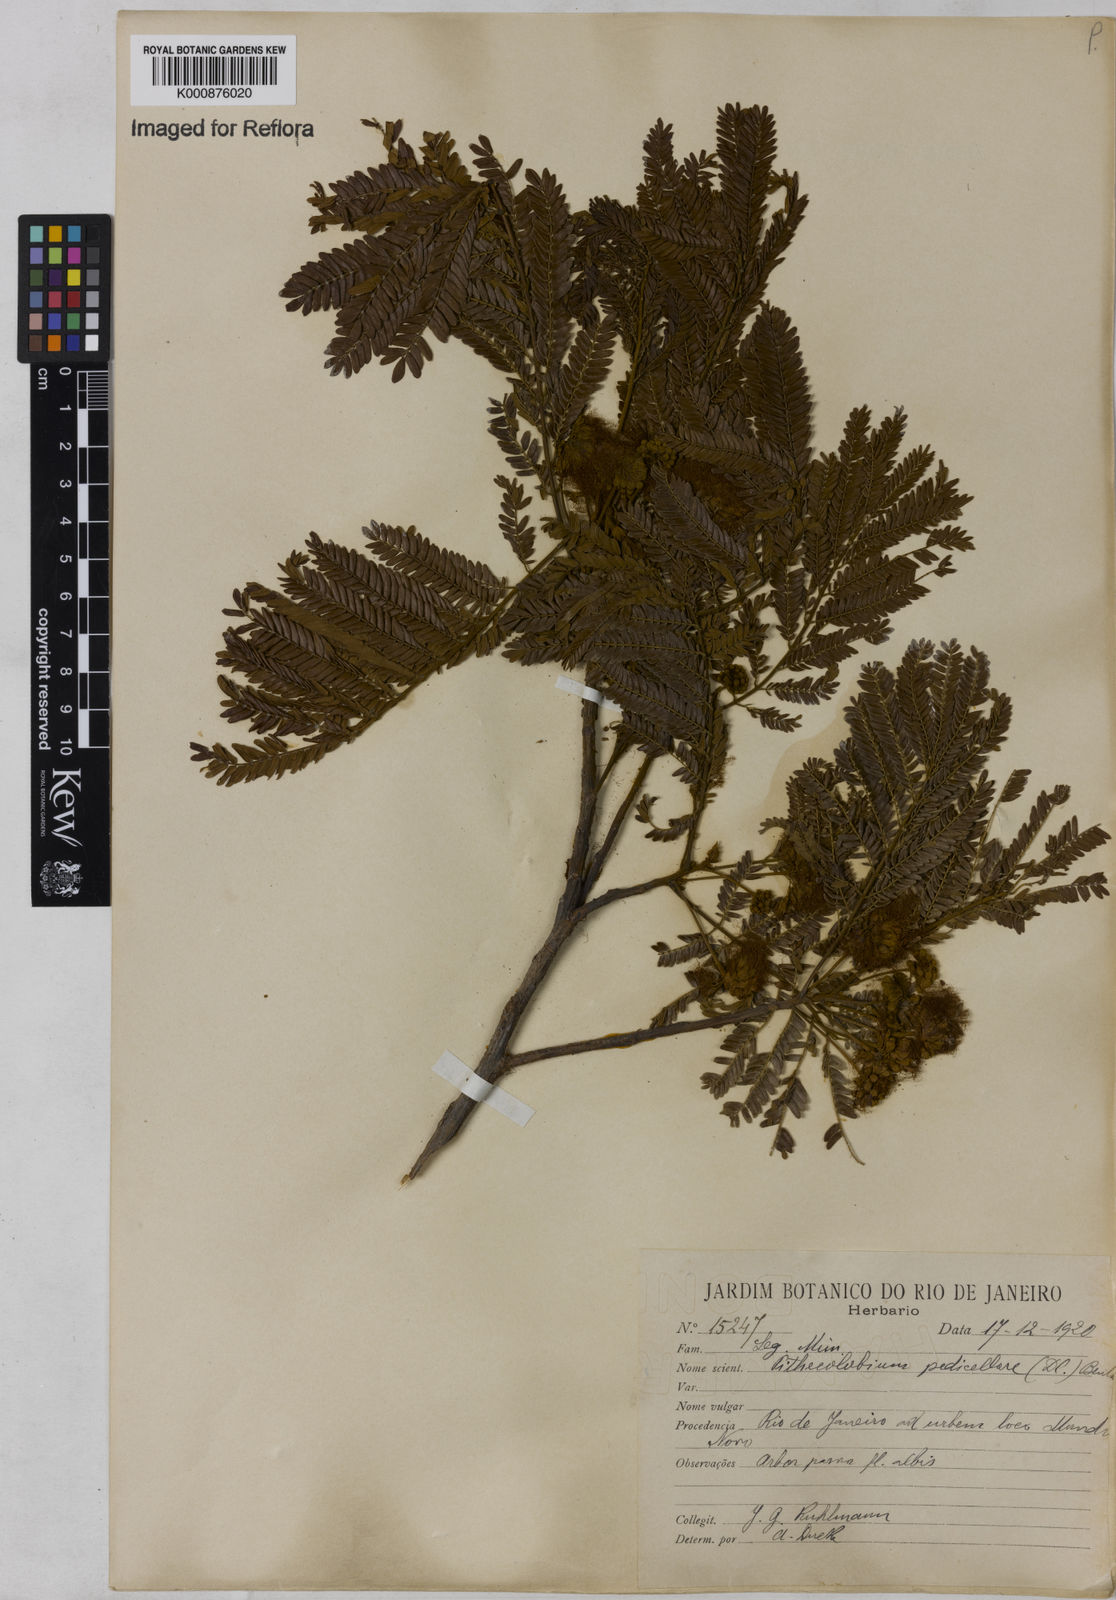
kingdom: Plantae
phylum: Tracheophyta
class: Magnoliopsida
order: Fabales
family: Fabaceae
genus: Balizia
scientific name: Balizia pedicellaris
